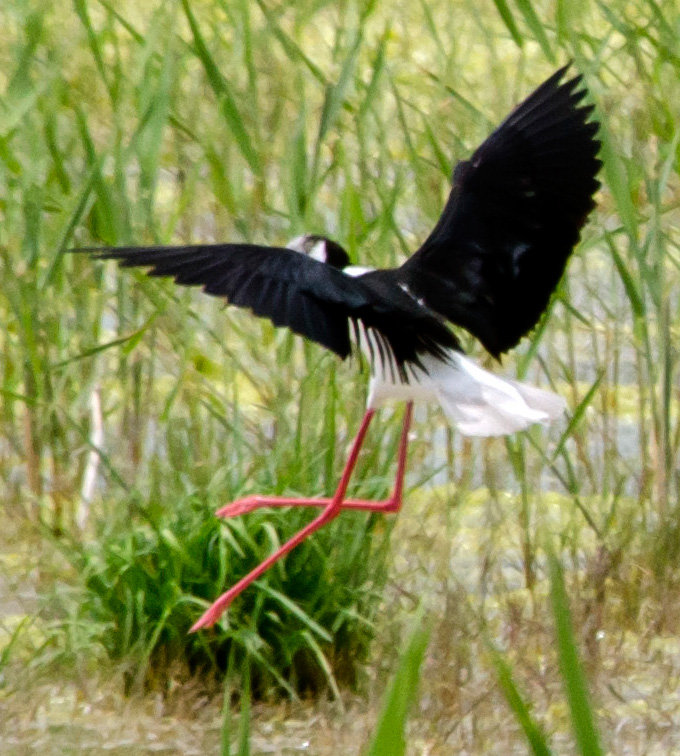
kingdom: Animalia
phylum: Chordata
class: Aves
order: Charadriiformes
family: Recurvirostridae
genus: Himantopus
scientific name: Himantopus himantopus
